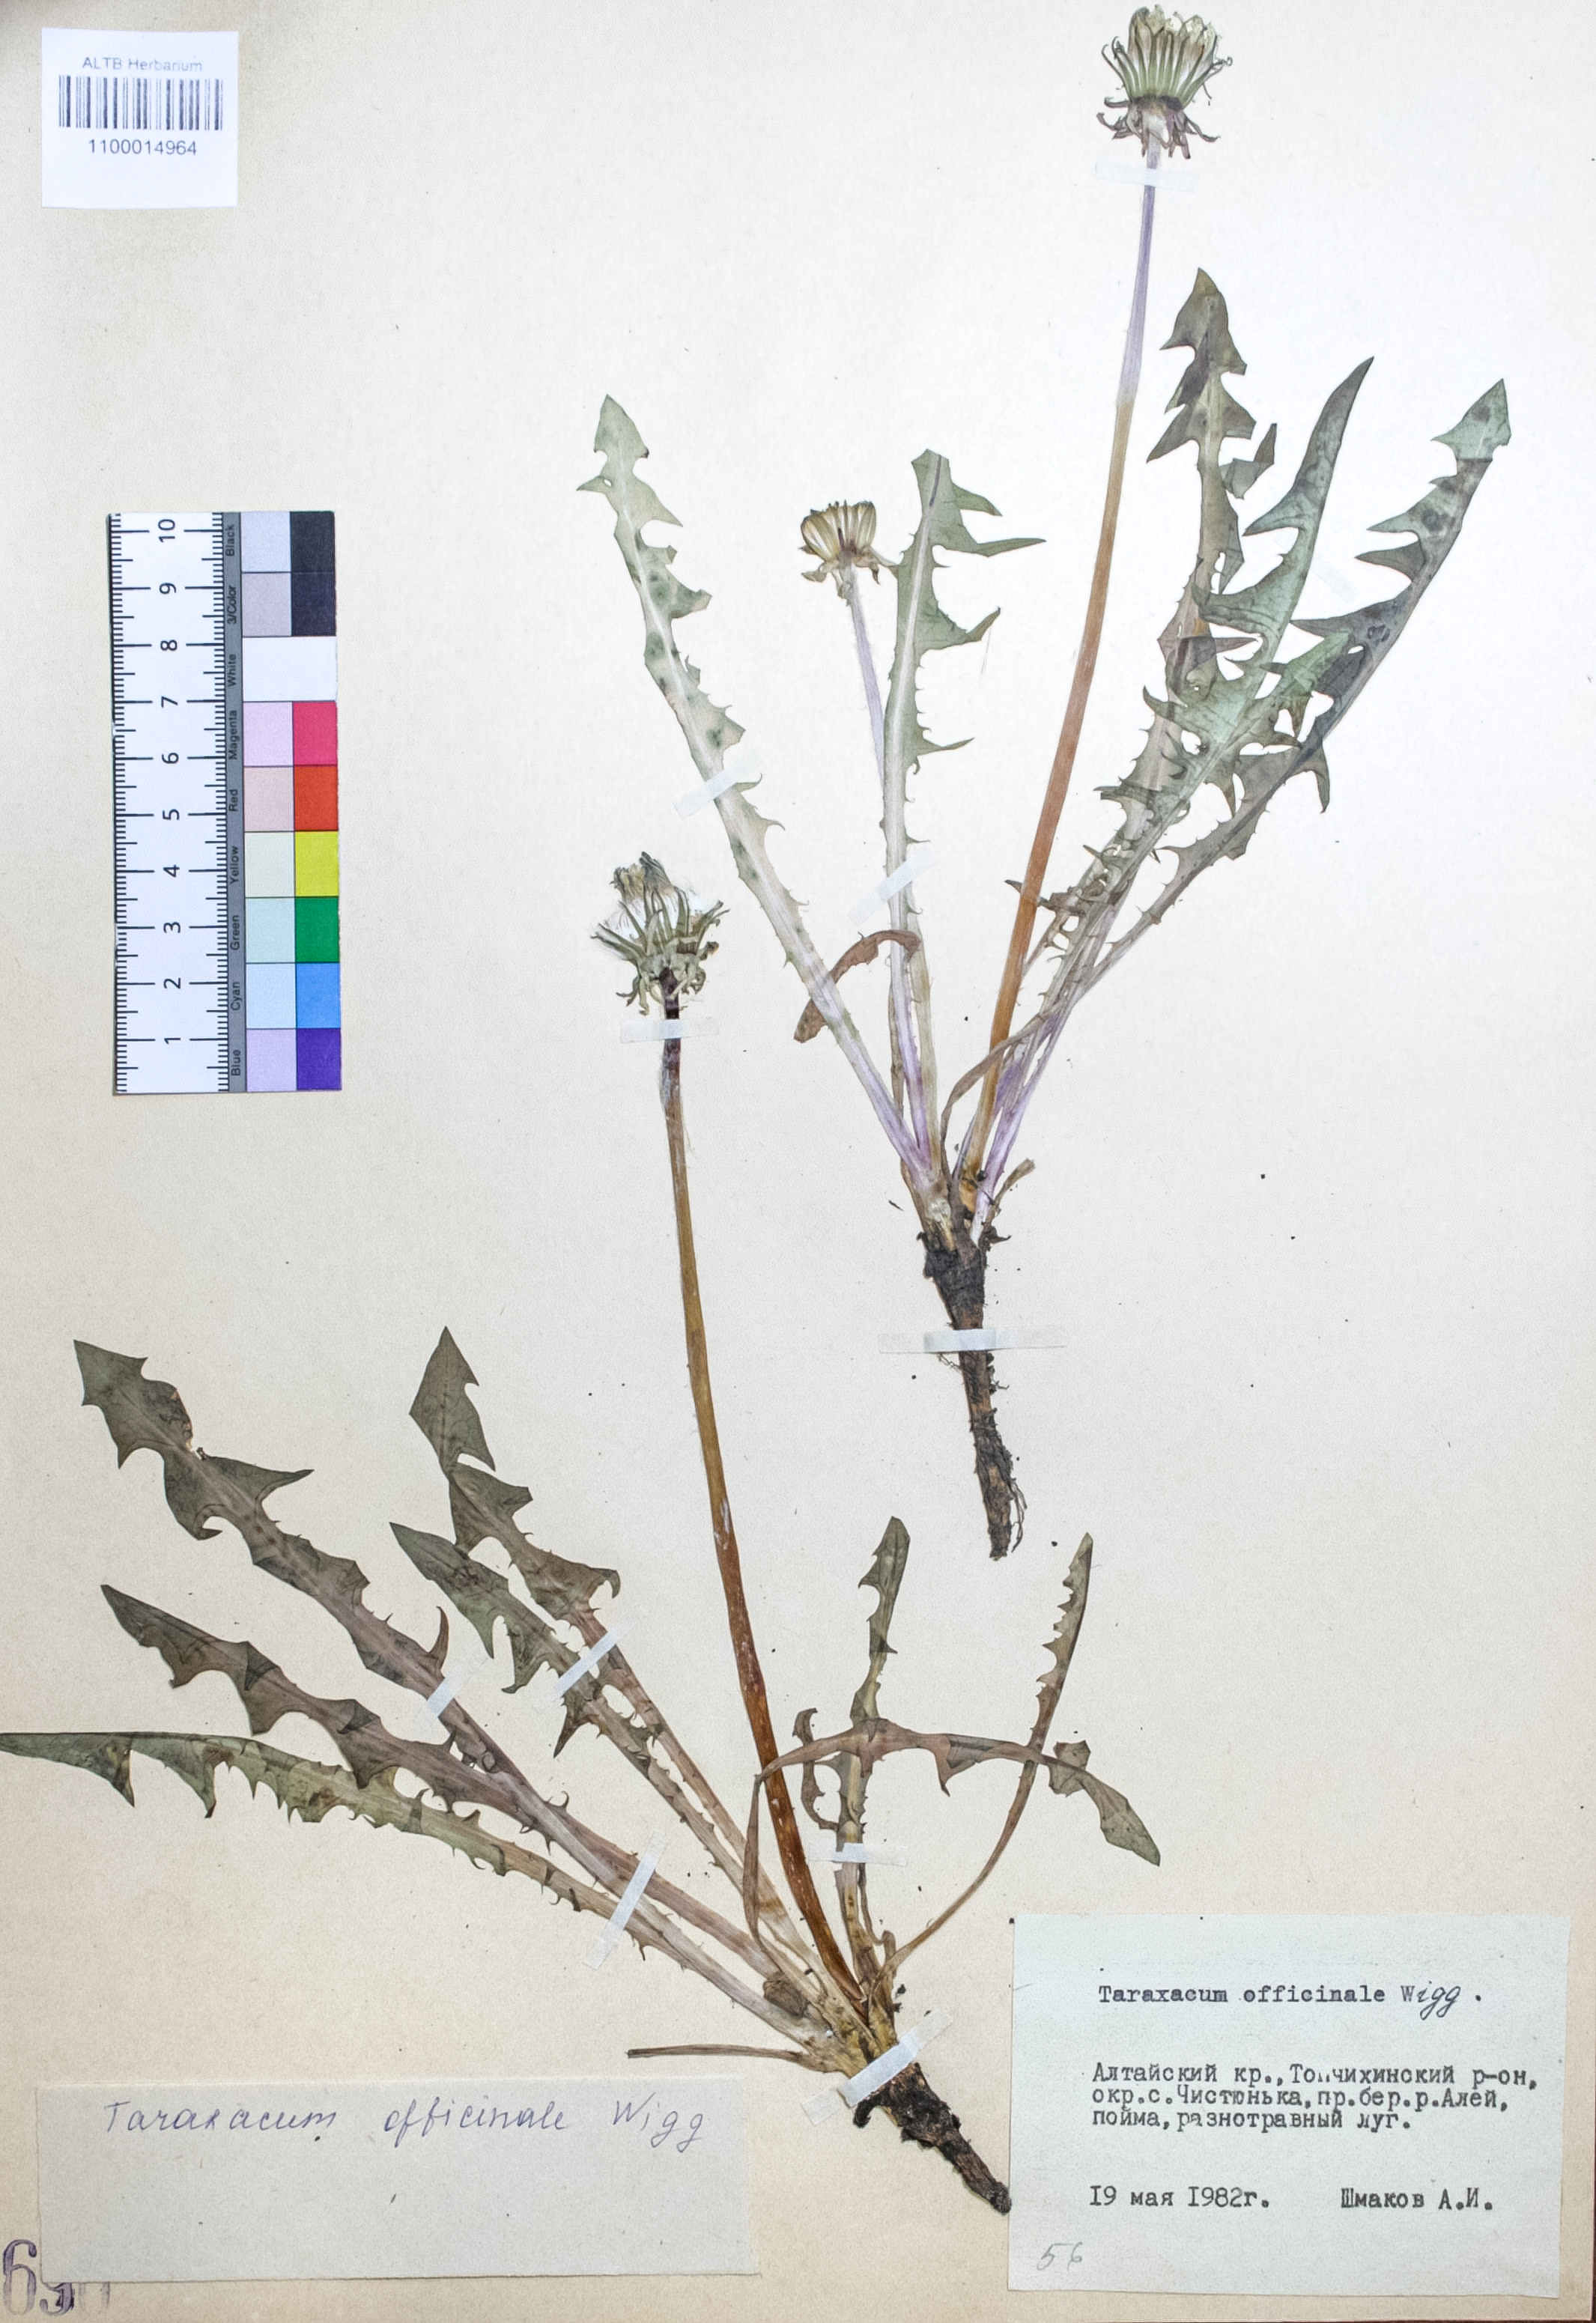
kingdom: Plantae
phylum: Tracheophyta
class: Magnoliopsida
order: Asterales
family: Asteraceae
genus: Taraxacum
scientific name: Taraxacum officinale
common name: Common dandelion
